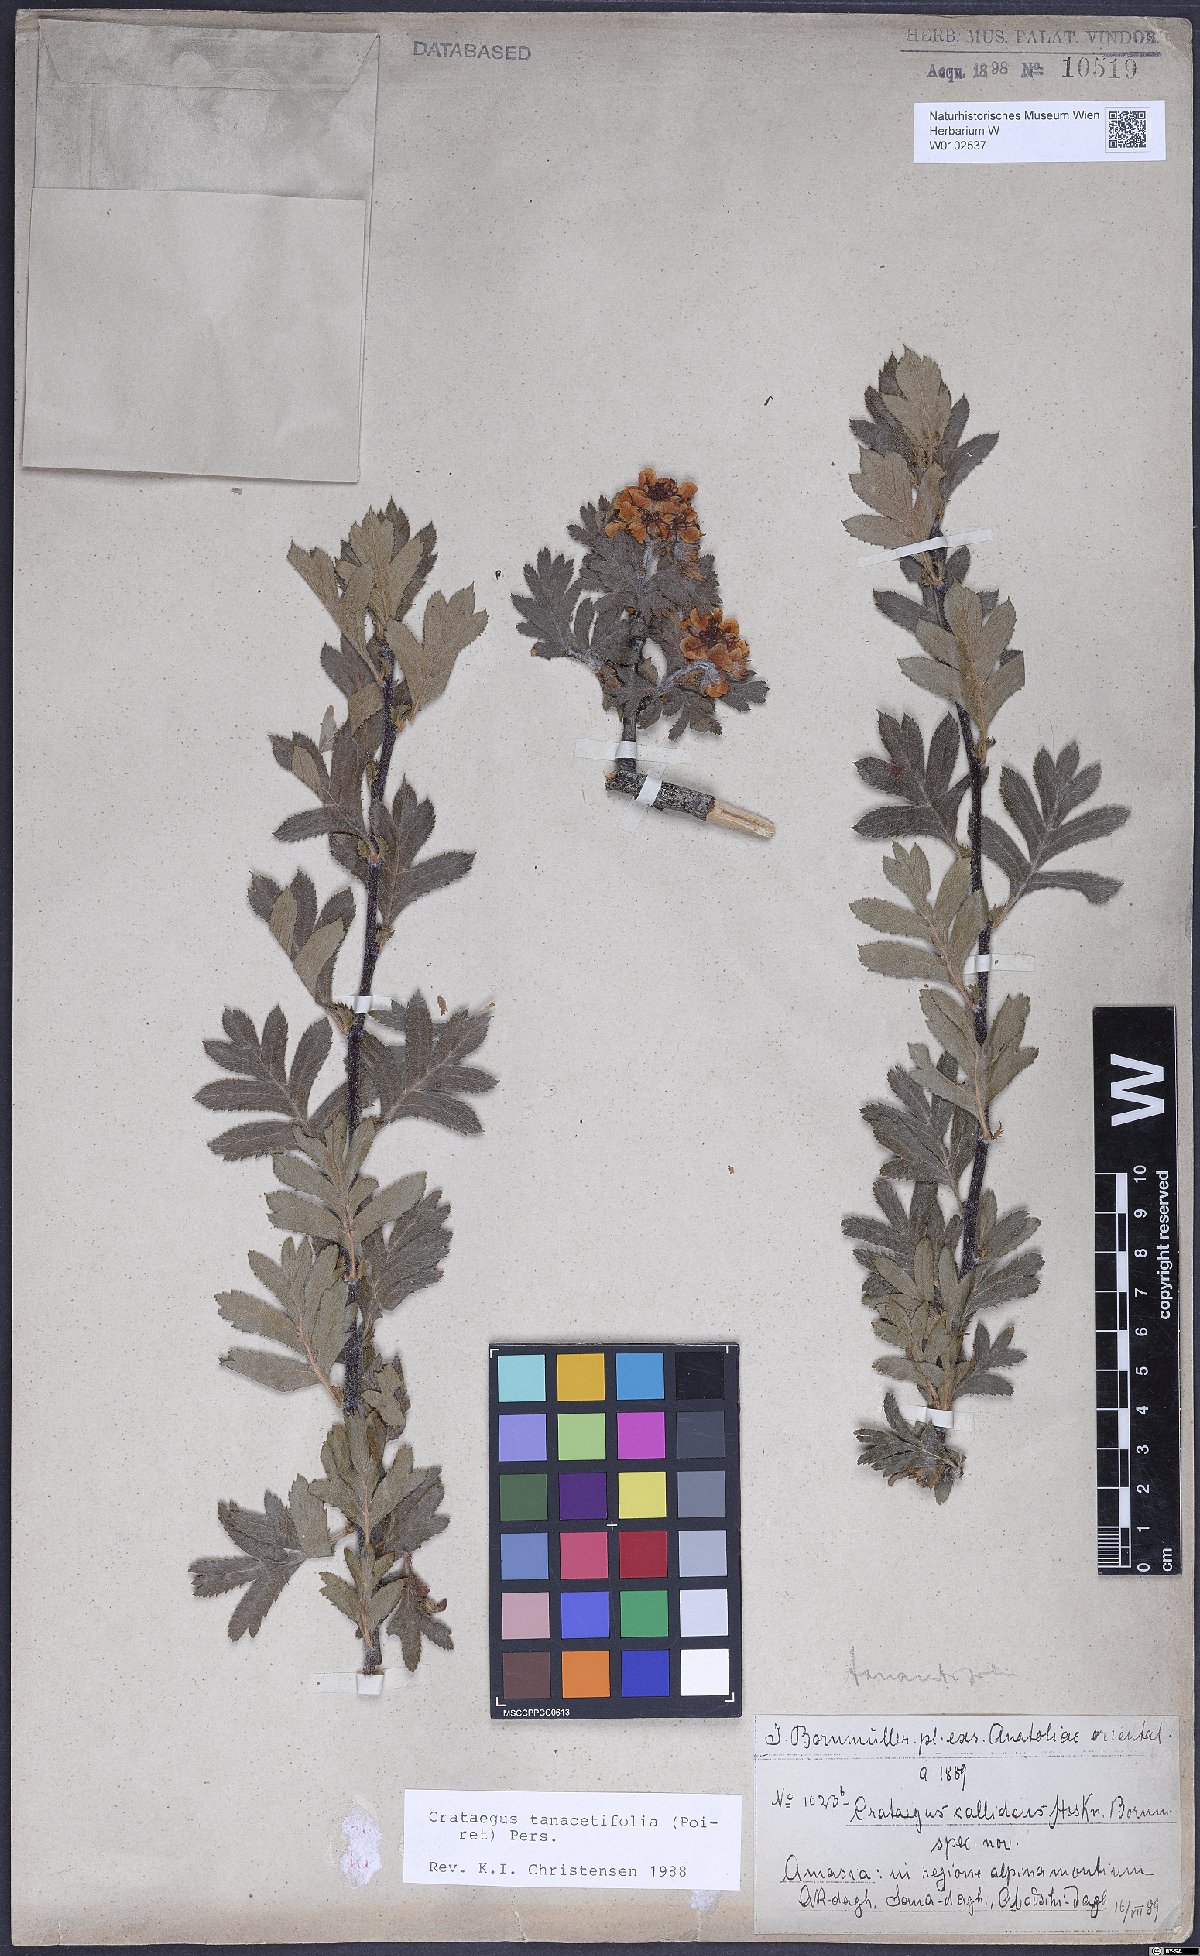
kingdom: Plantae
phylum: Tracheophyta
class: Magnoliopsida
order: Rosales
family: Rosaceae
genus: Crataegus
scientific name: Crataegus tanacetifolia
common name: Tansy-leaved thorn
